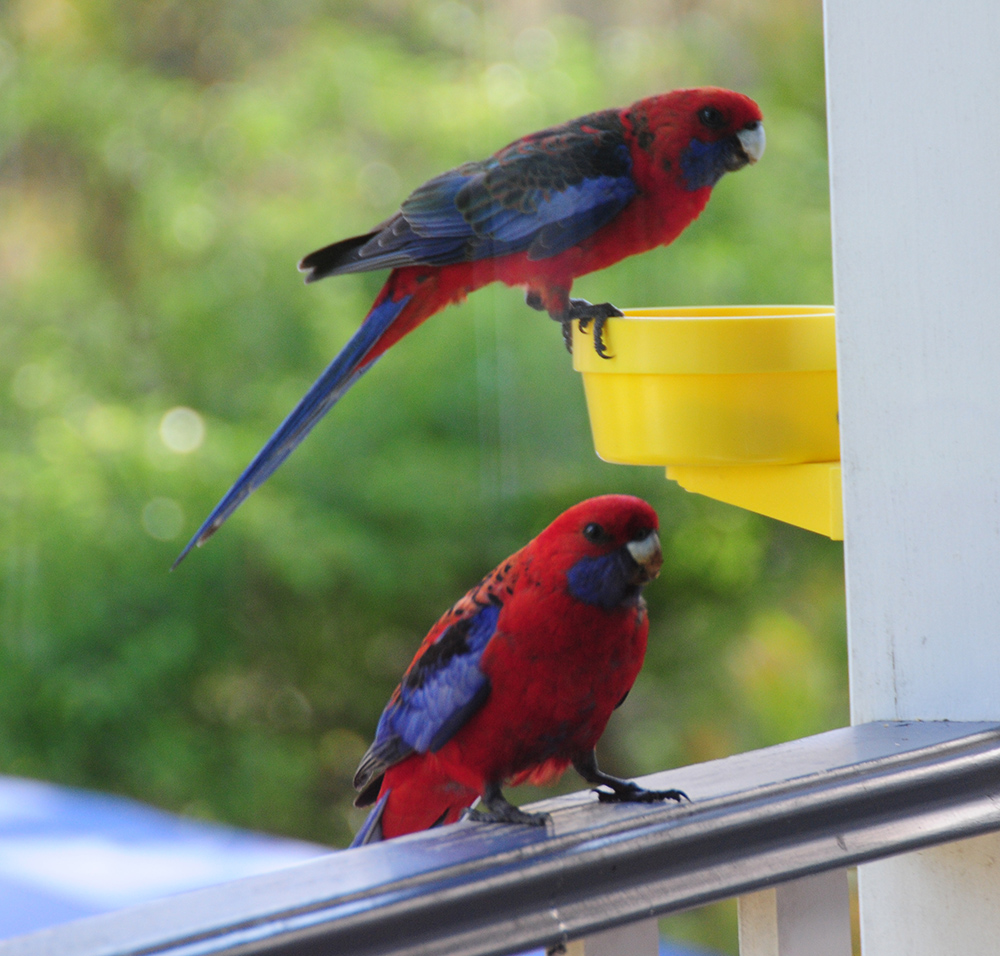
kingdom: Animalia
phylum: Chordata
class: Aves
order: Psittaciformes
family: Psittacidae
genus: Platycercus
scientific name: Platycercus elegans
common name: Crimson rosella
